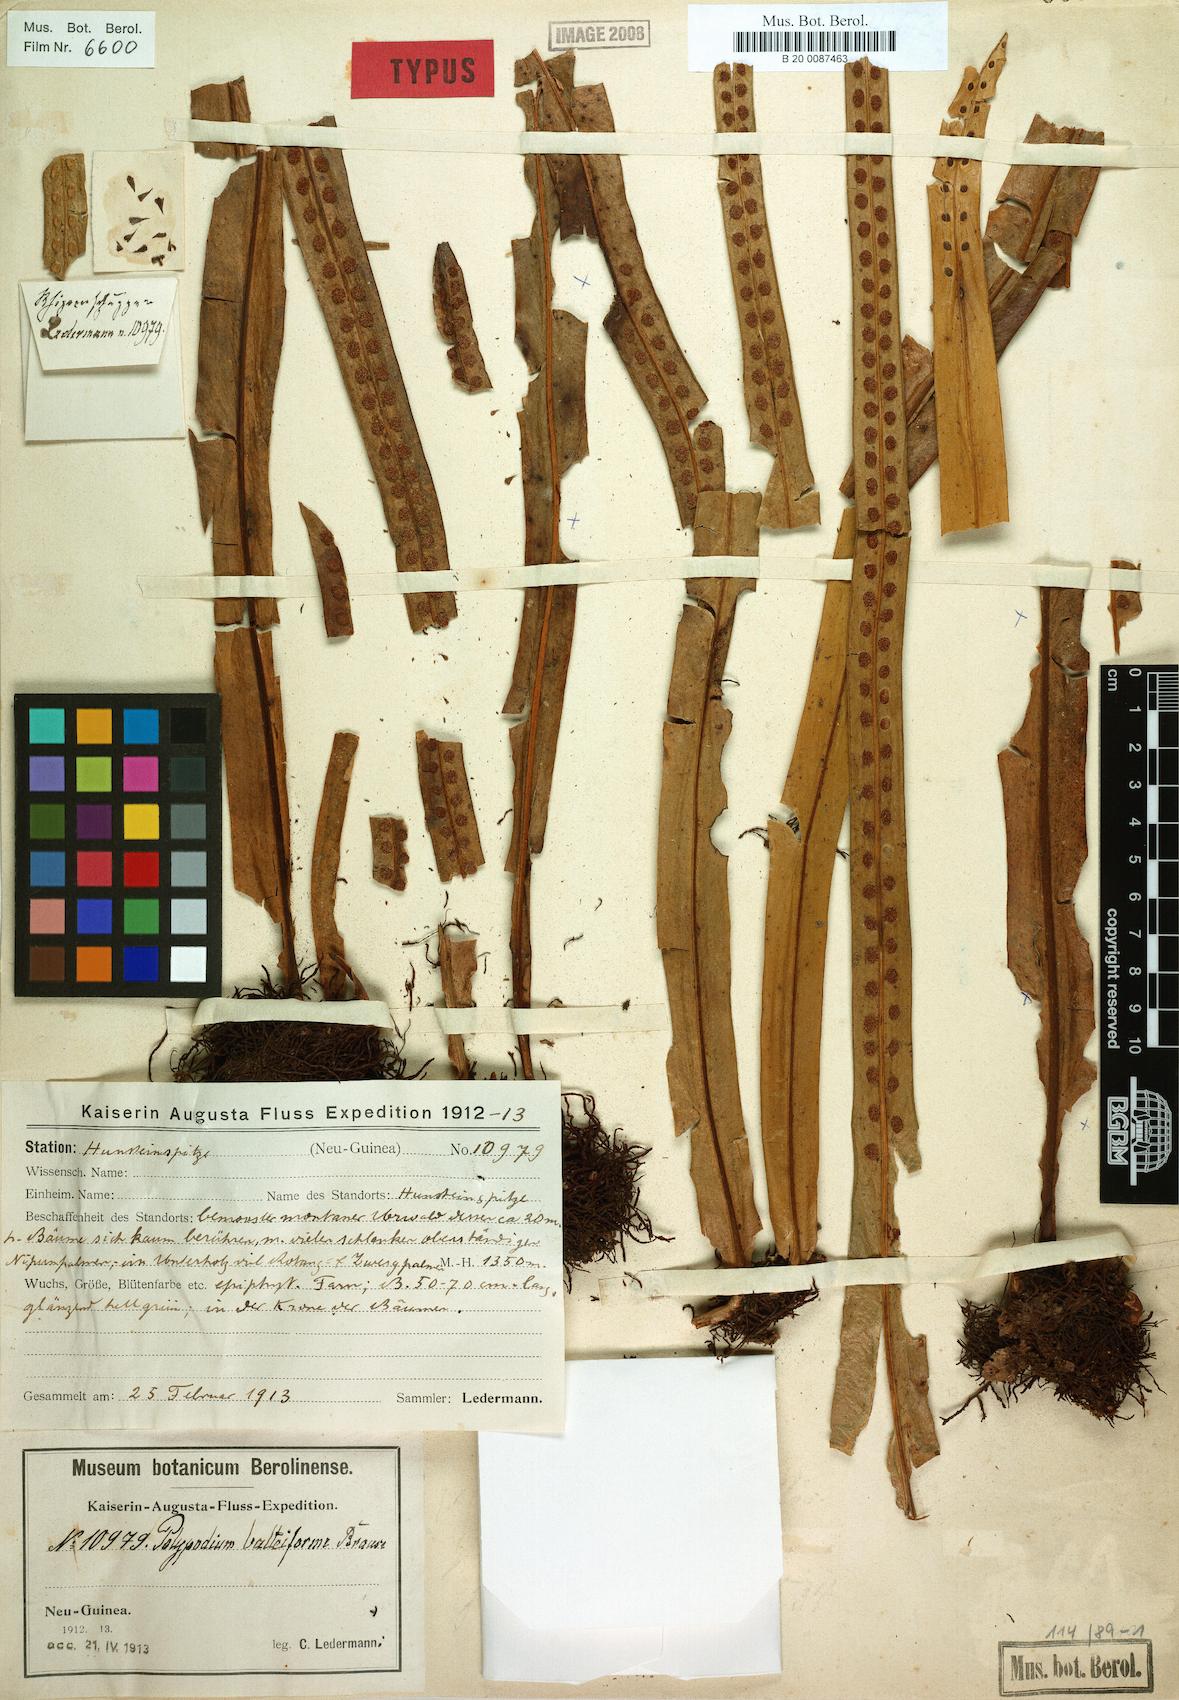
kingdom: Plantae
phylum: Tracheophyta
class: Polypodiopsida
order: Polypodiales
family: Polypodiaceae
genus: Lepisorus
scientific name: Lepisorus balteiformis
